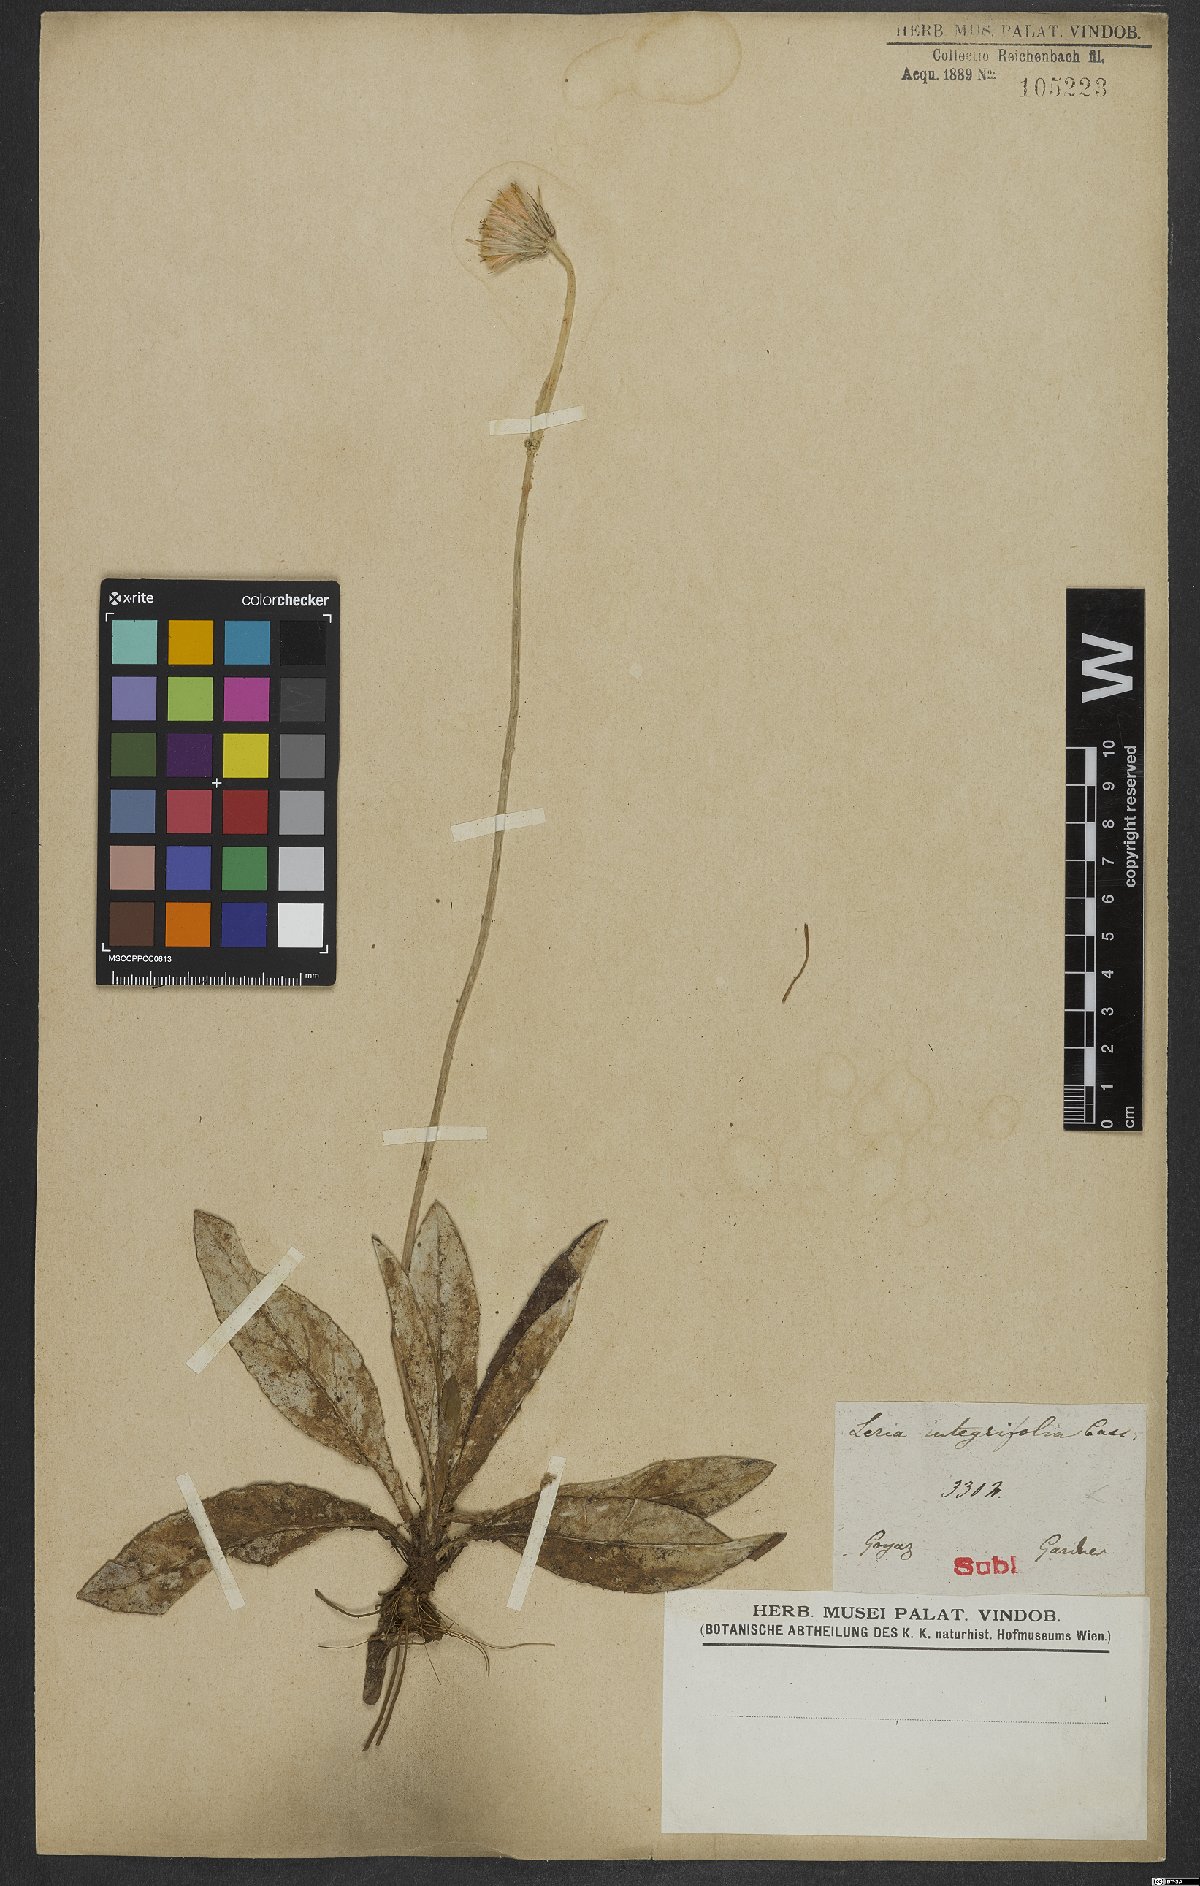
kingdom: Plantae
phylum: Tracheophyta
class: Magnoliopsida
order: Asterales
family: Asteraceae
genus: Chaptalia
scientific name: Chaptalia integerrima
